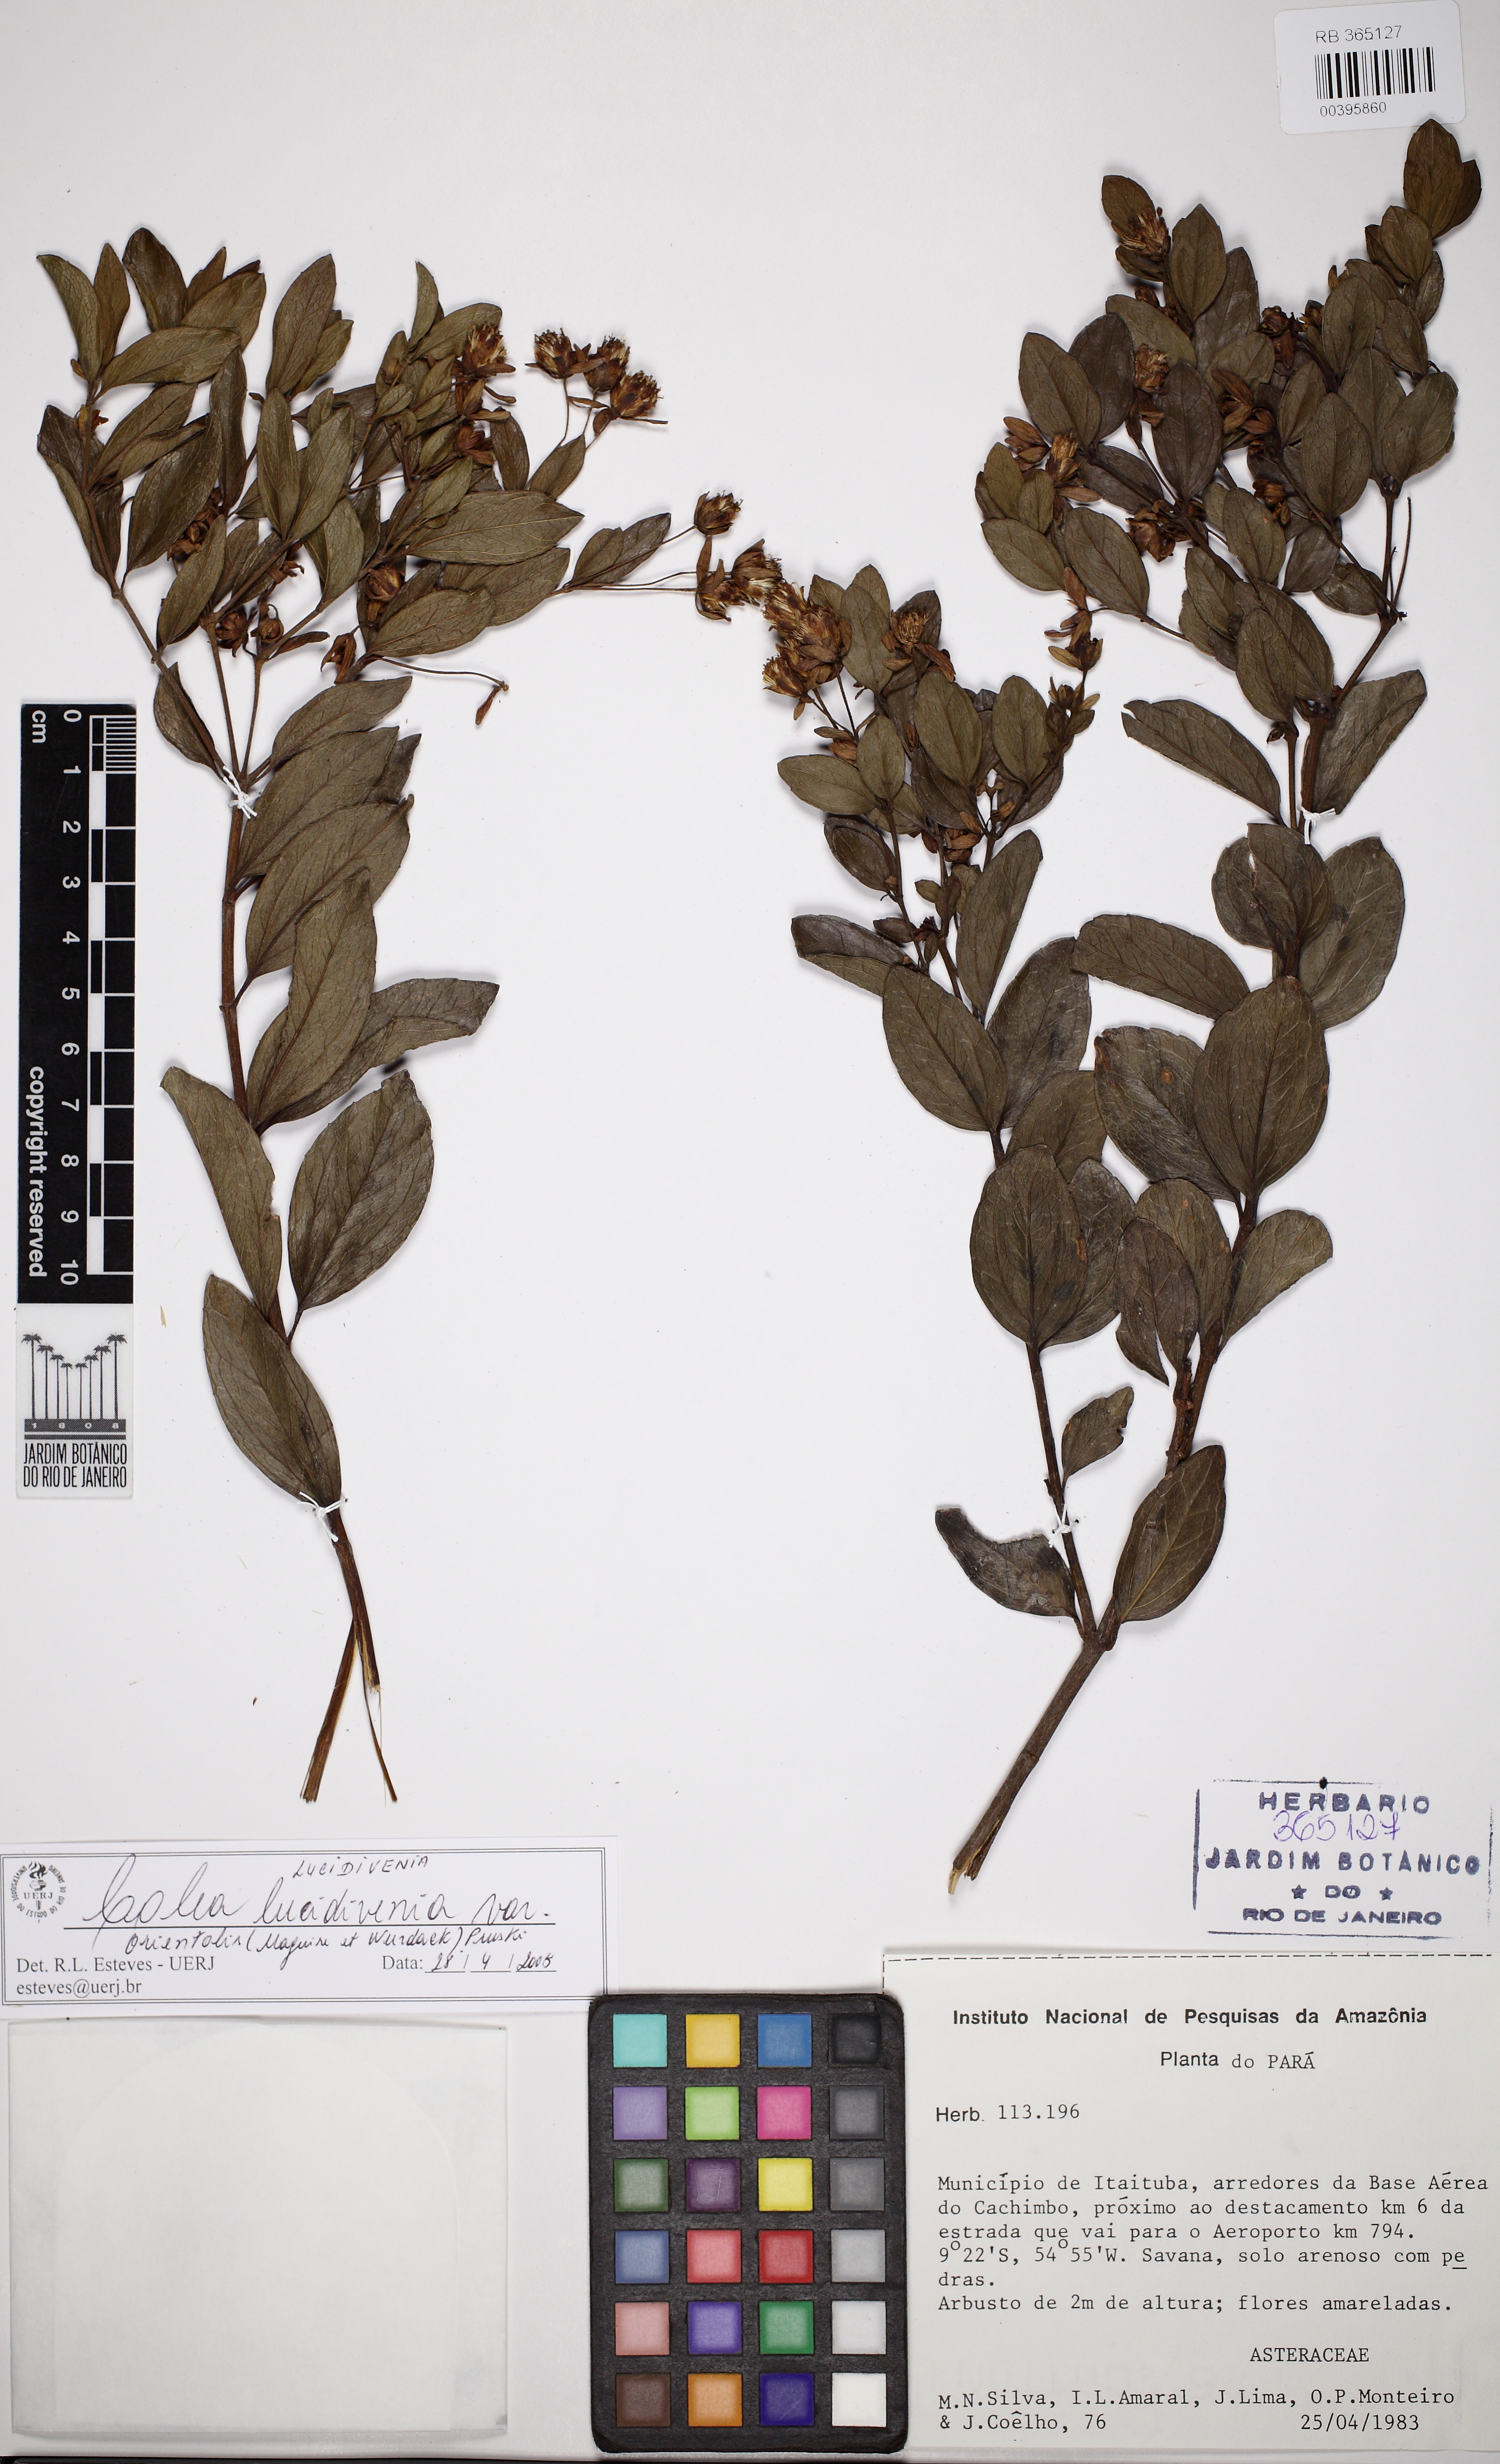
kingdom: Plantae
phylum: Tracheophyta
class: Magnoliopsida
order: Asterales
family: Asteraceae
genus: Calea
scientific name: Calea lucidivenia
